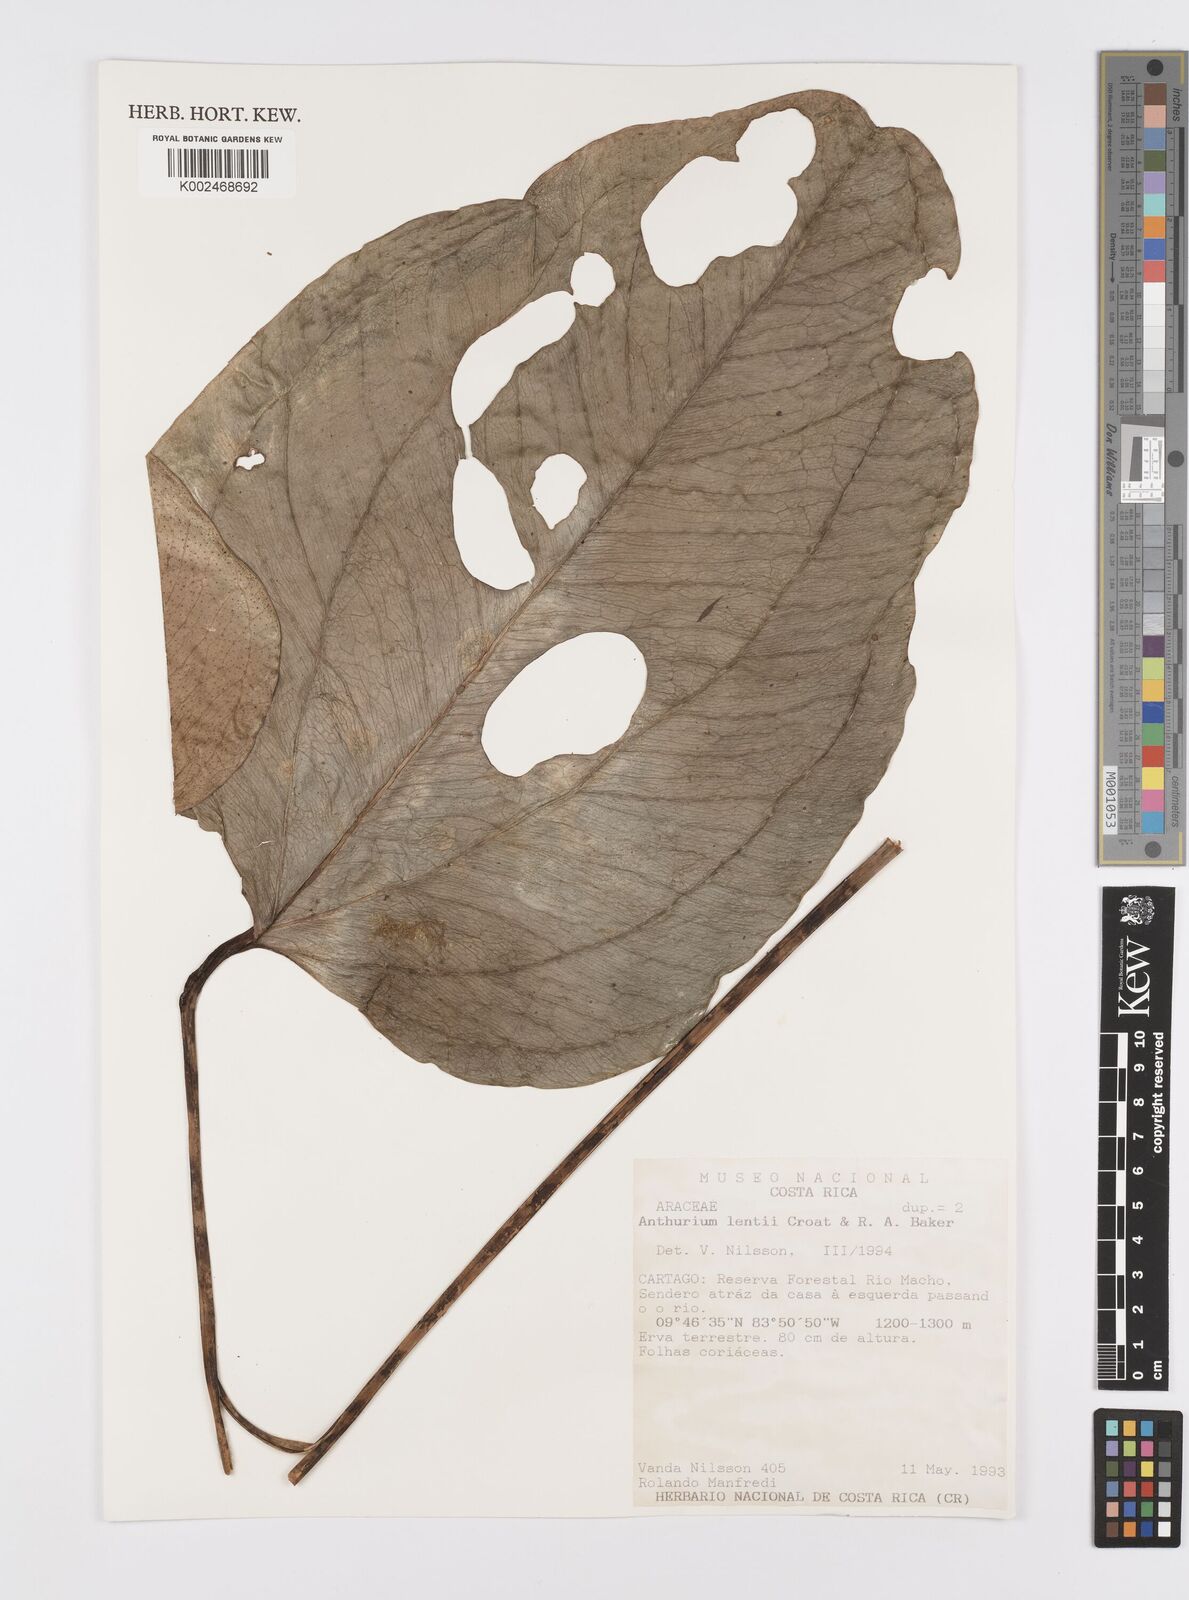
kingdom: Plantae
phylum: Tracheophyta
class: Liliopsida
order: Alismatales
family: Araceae
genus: Anthurium
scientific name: Anthurium lentii
